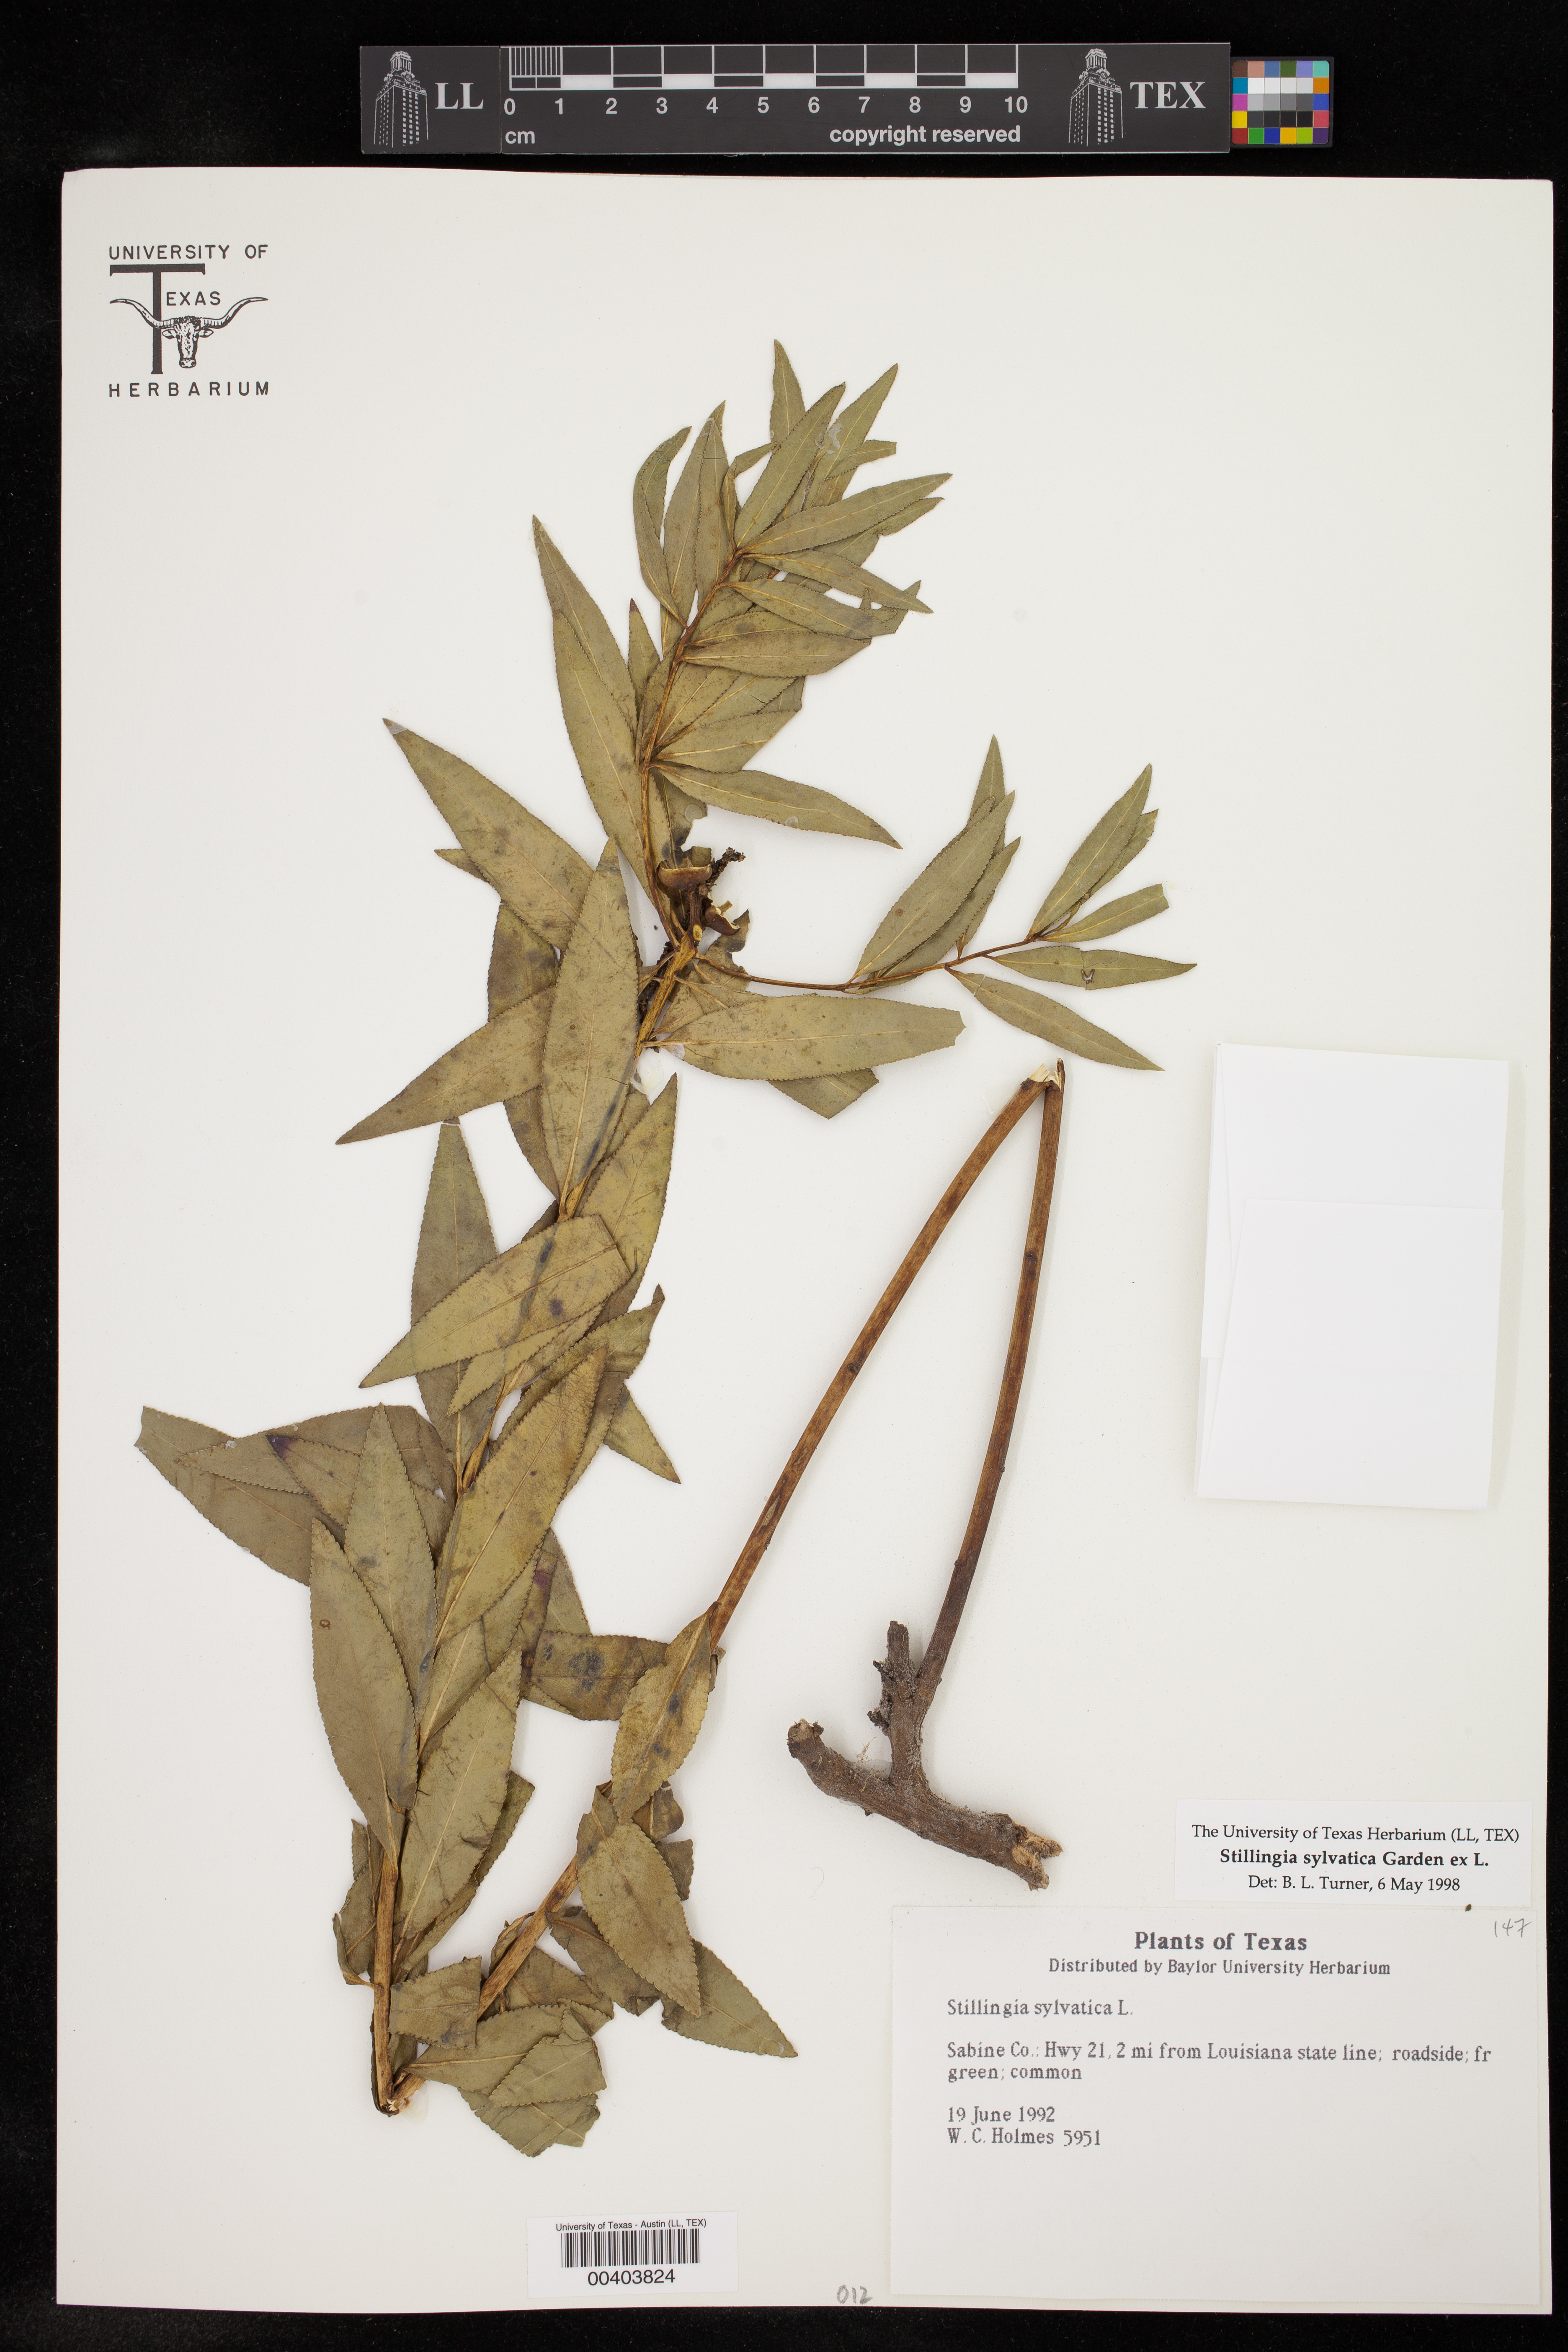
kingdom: Plantae
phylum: Tracheophyta
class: Magnoliopsida
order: Malpighiales
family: Euphorbiaceae
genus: Stillingia
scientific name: Stillingia sylvatica
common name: Queen's-delight
